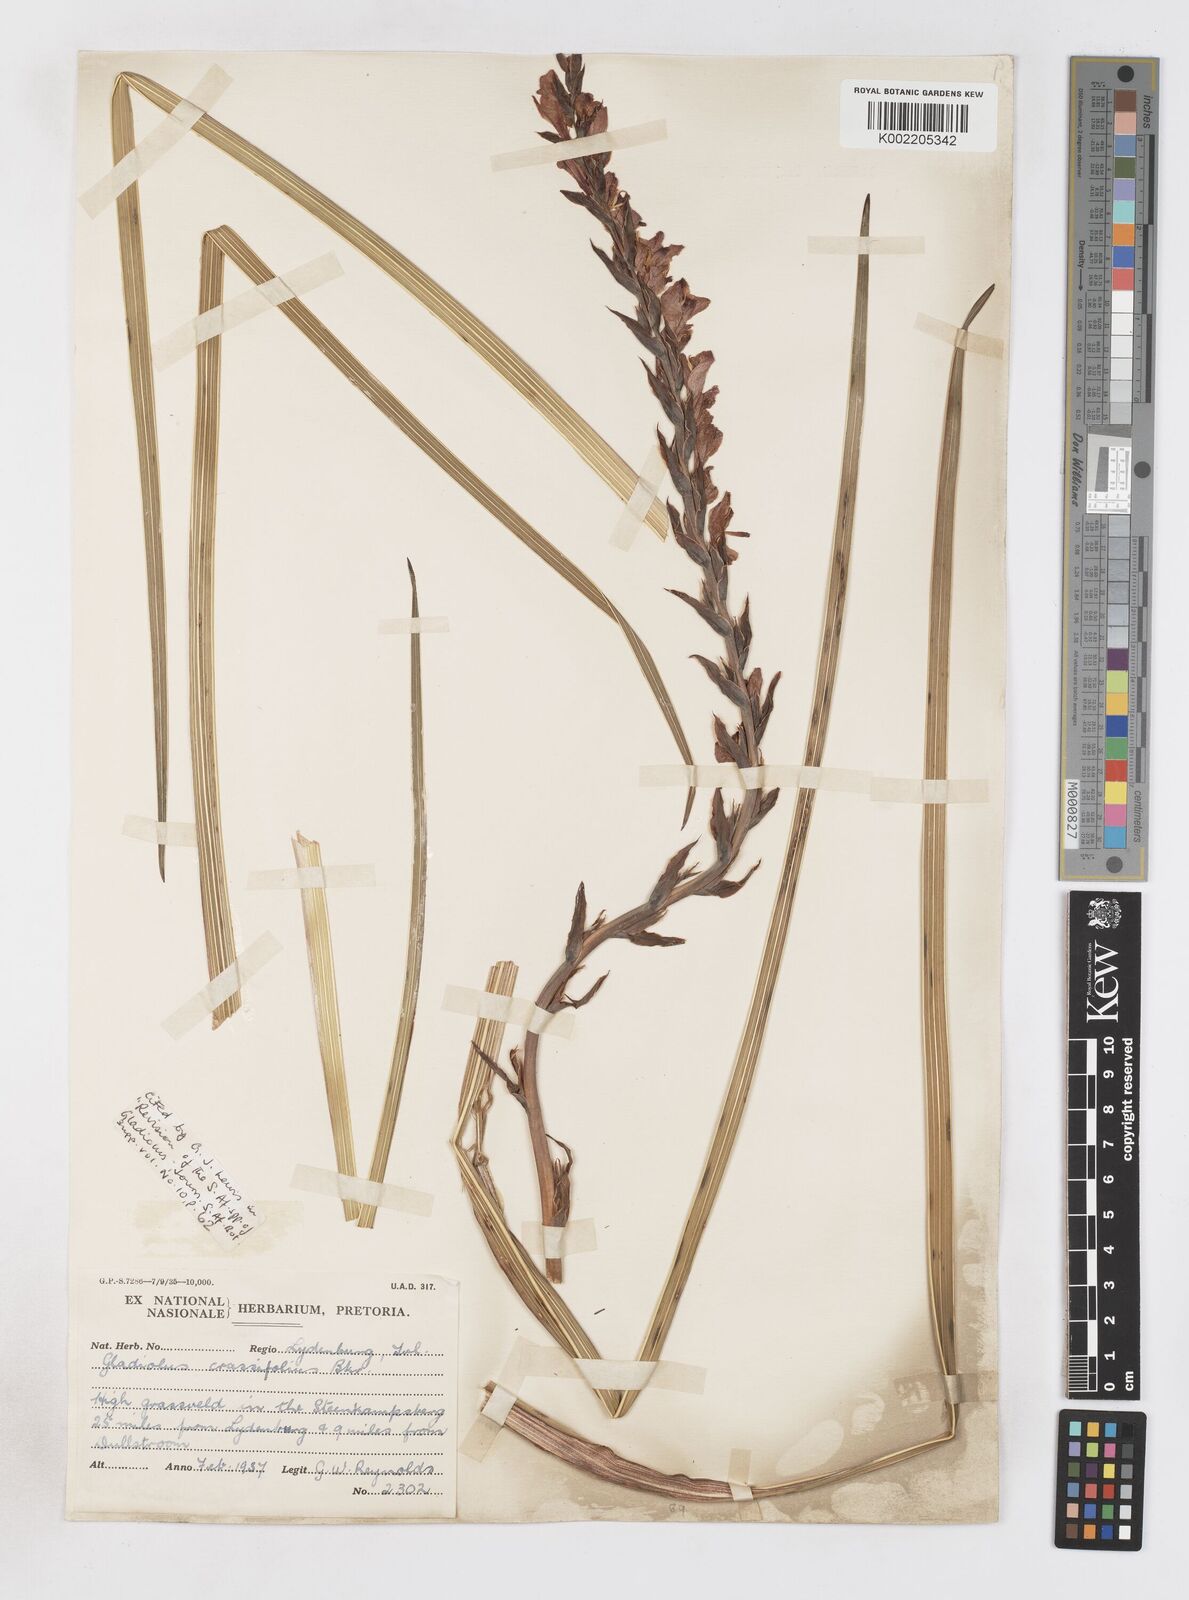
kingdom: Plantae
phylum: Tracheophyta
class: Liliopsida
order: Asparagales
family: Iridaceae
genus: Gladiolus
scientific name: Gladiolus crassifolius
